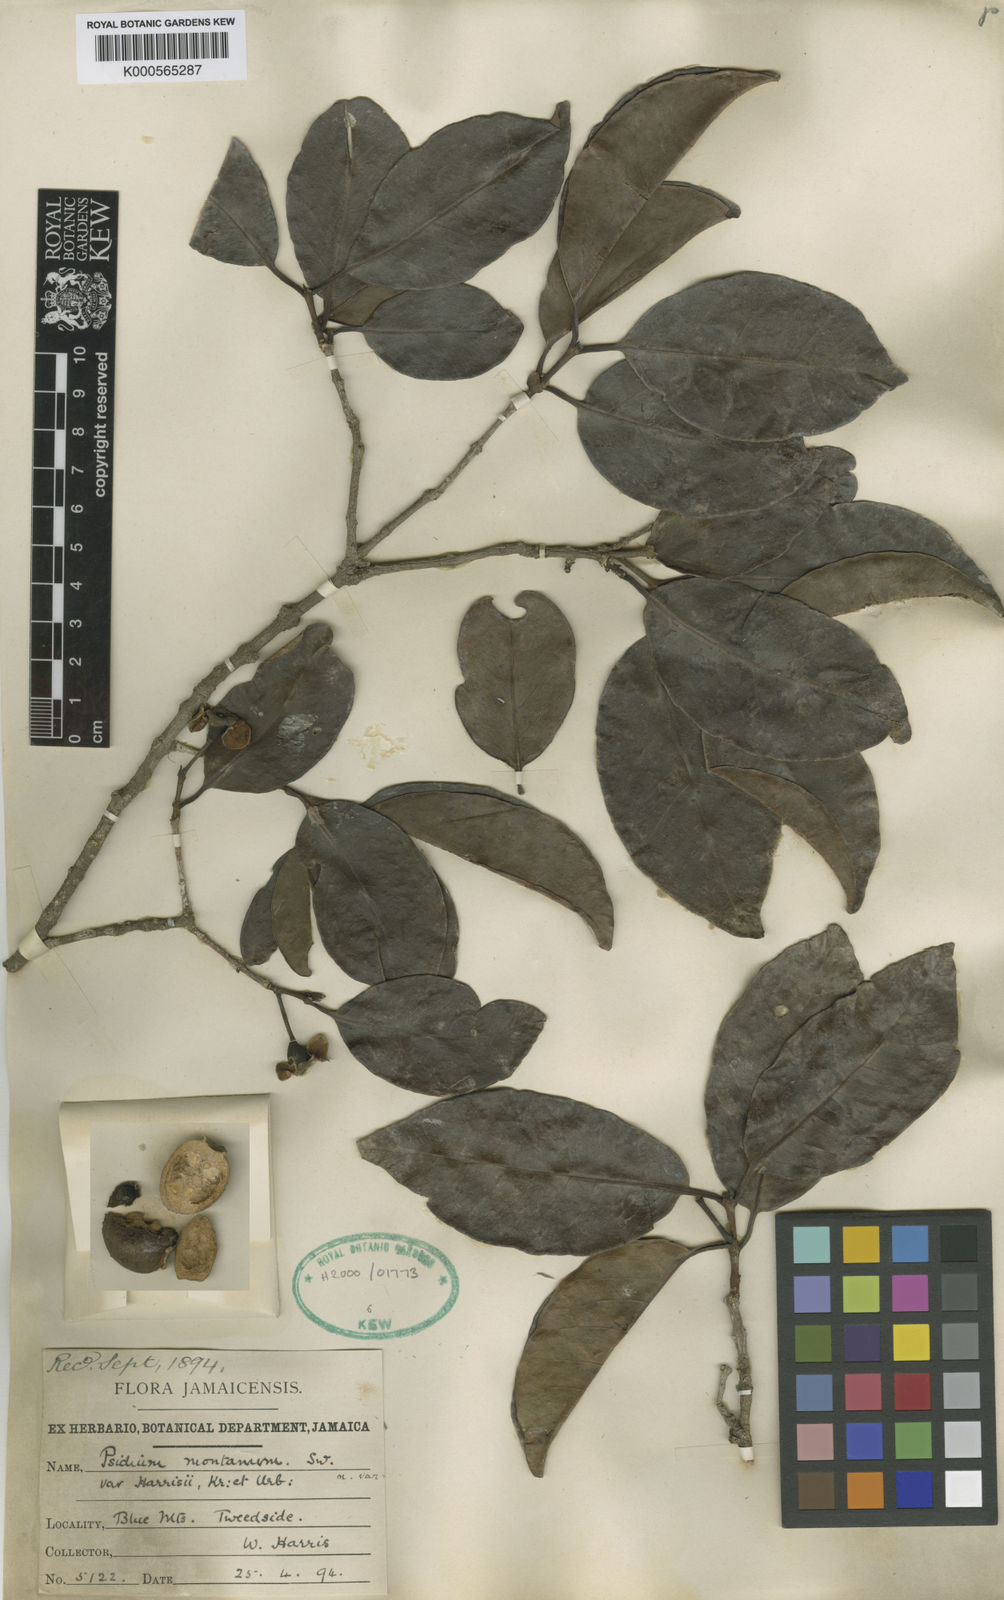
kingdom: Plantae
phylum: Tracheophyta
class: Magnoliopsida
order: Myrtales
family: Myrtaceae
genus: Psidium
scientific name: Psidium montanum
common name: Mountain guava
